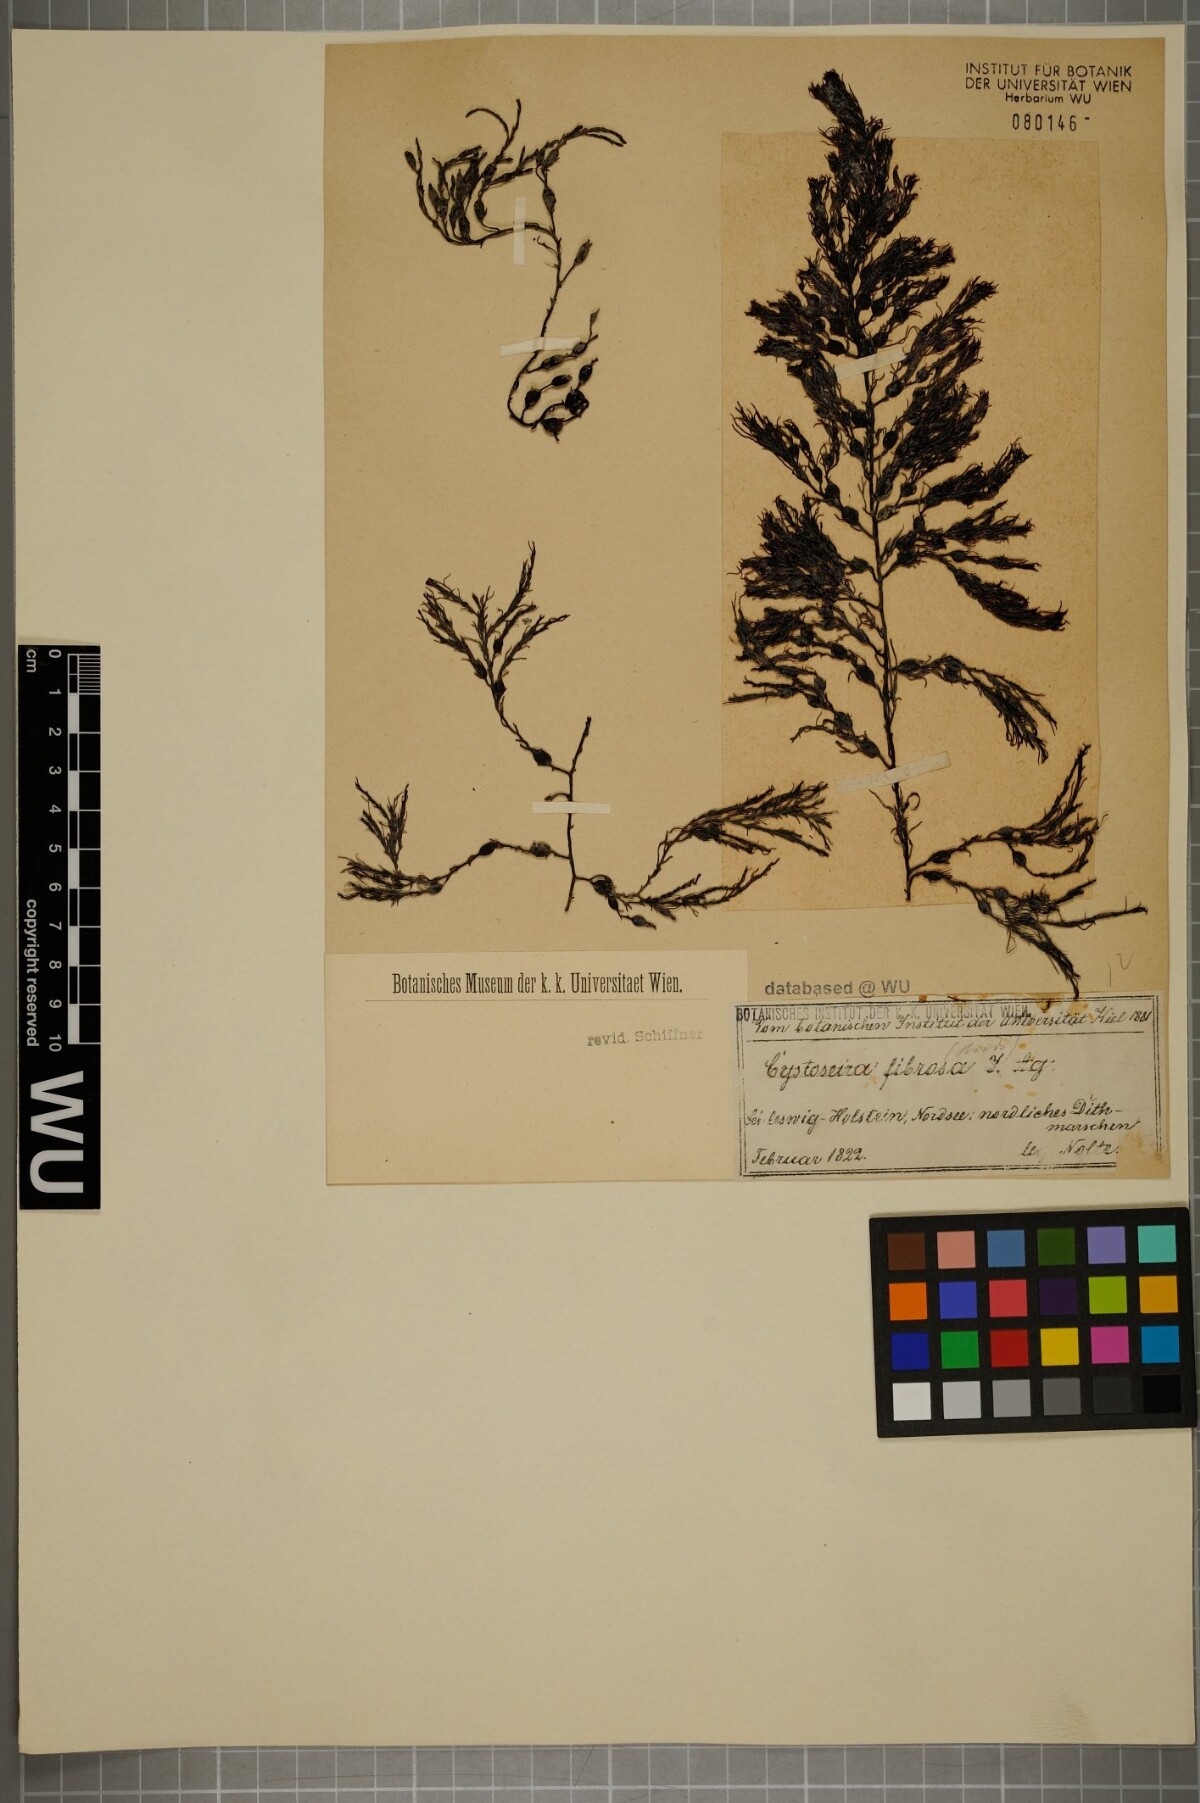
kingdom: Chromista
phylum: Ochrophyta
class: Phaeophyceae
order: Fucales
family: Sargassaceae
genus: Cystoseira
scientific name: Cystoseira Gongolaria baccata
